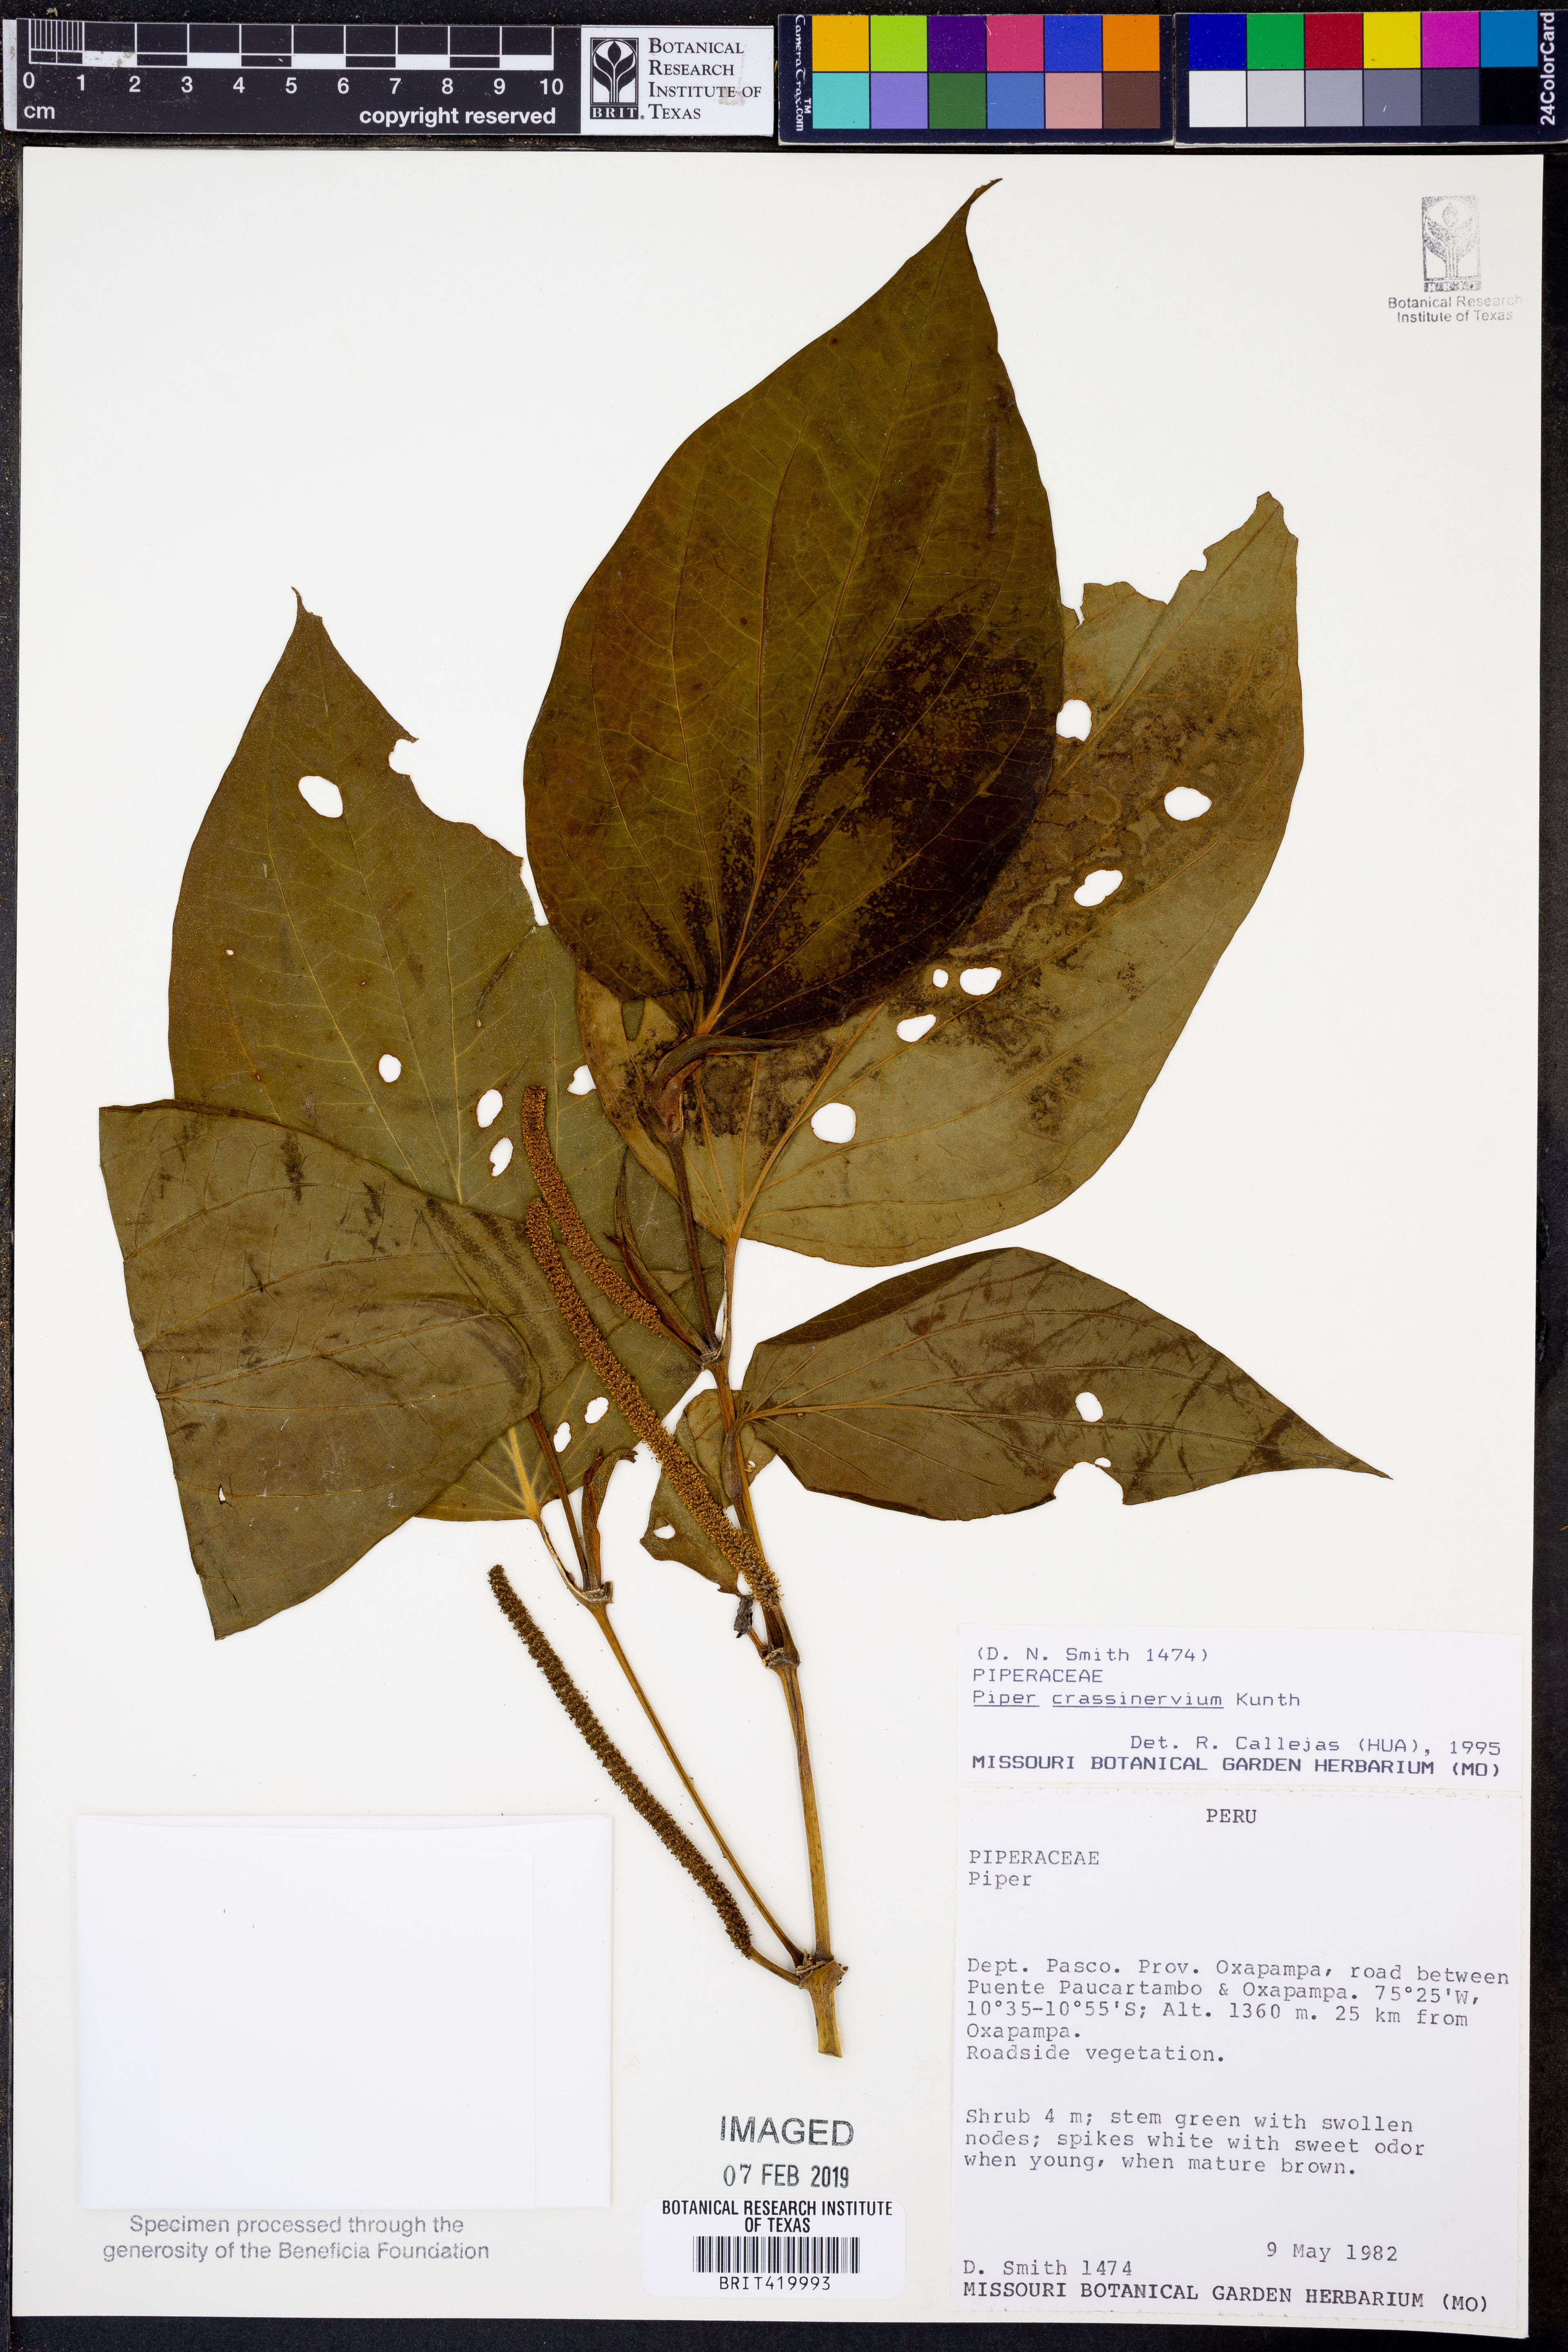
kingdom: Plantae
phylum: Tracheophyta
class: Magnoliopsida
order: Piperales
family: Piperaceae
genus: Piper
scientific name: Piper crassinervium
